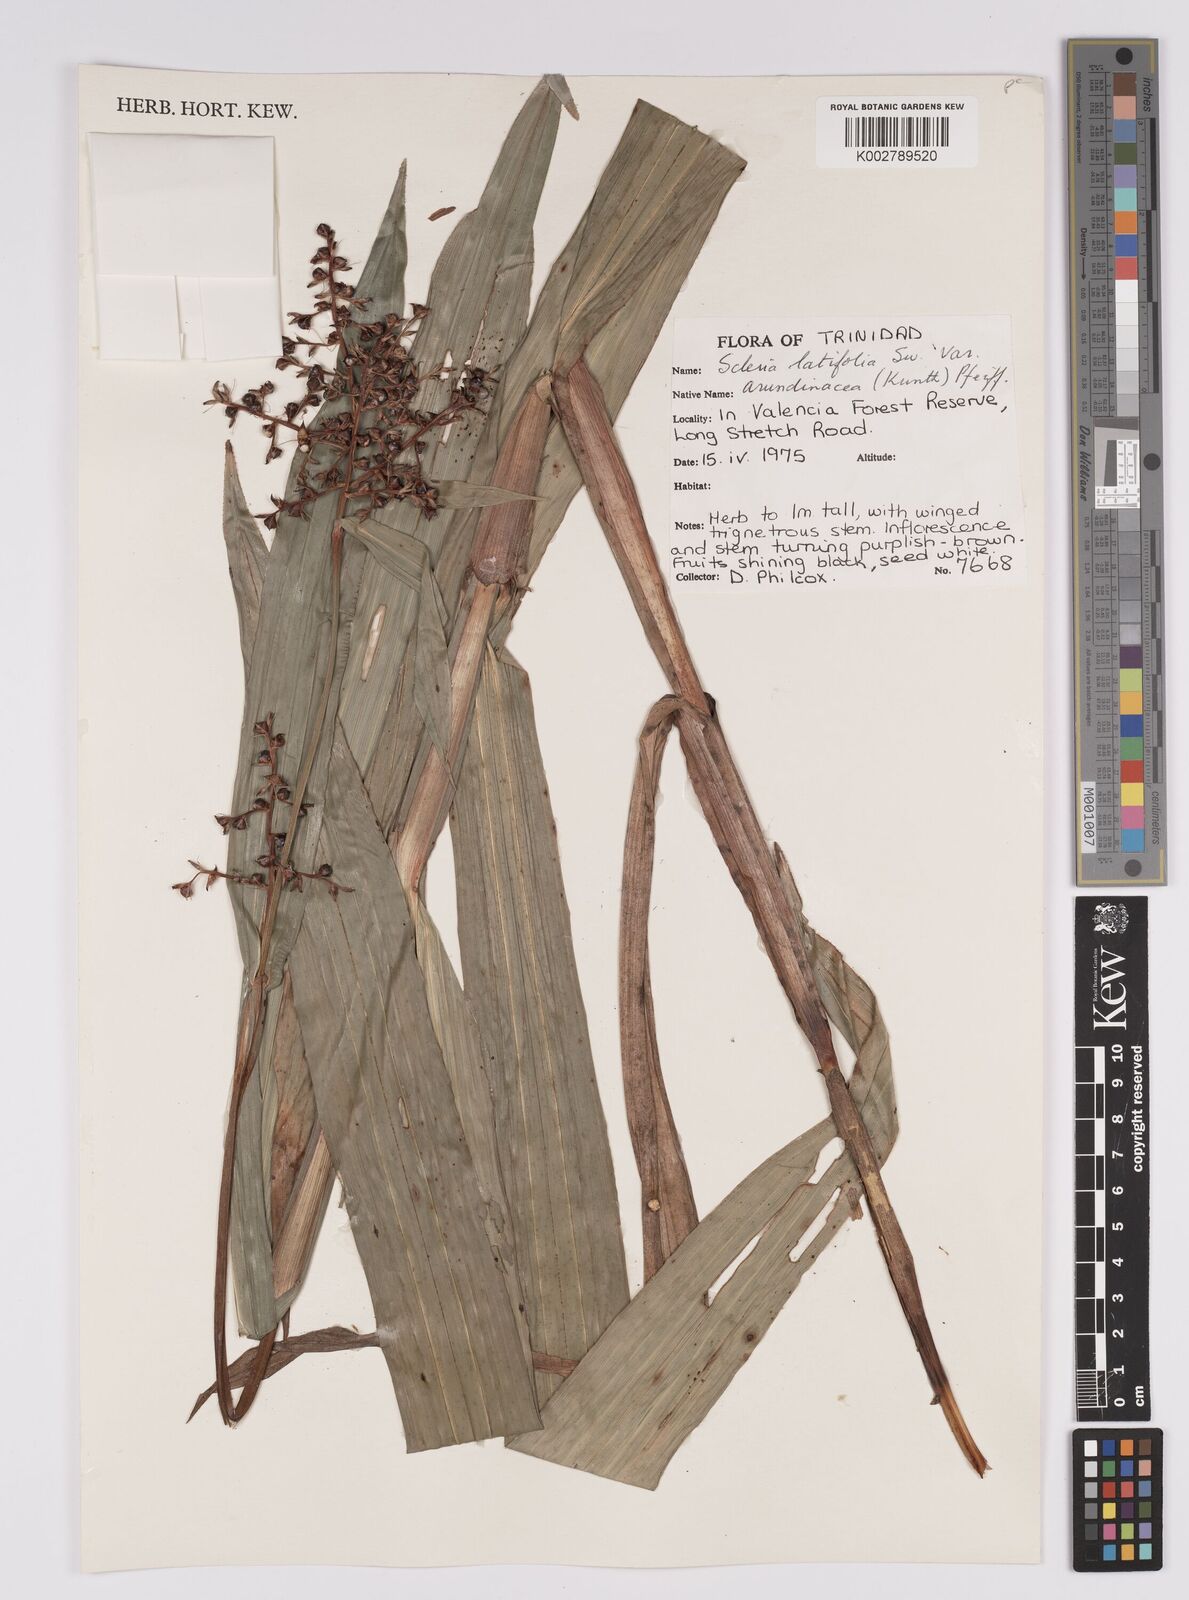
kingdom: Plantae
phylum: Tracheophyta
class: Liliopsida
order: Poales
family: Cyperaceae
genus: Scleria
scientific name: Scleria latifolia
